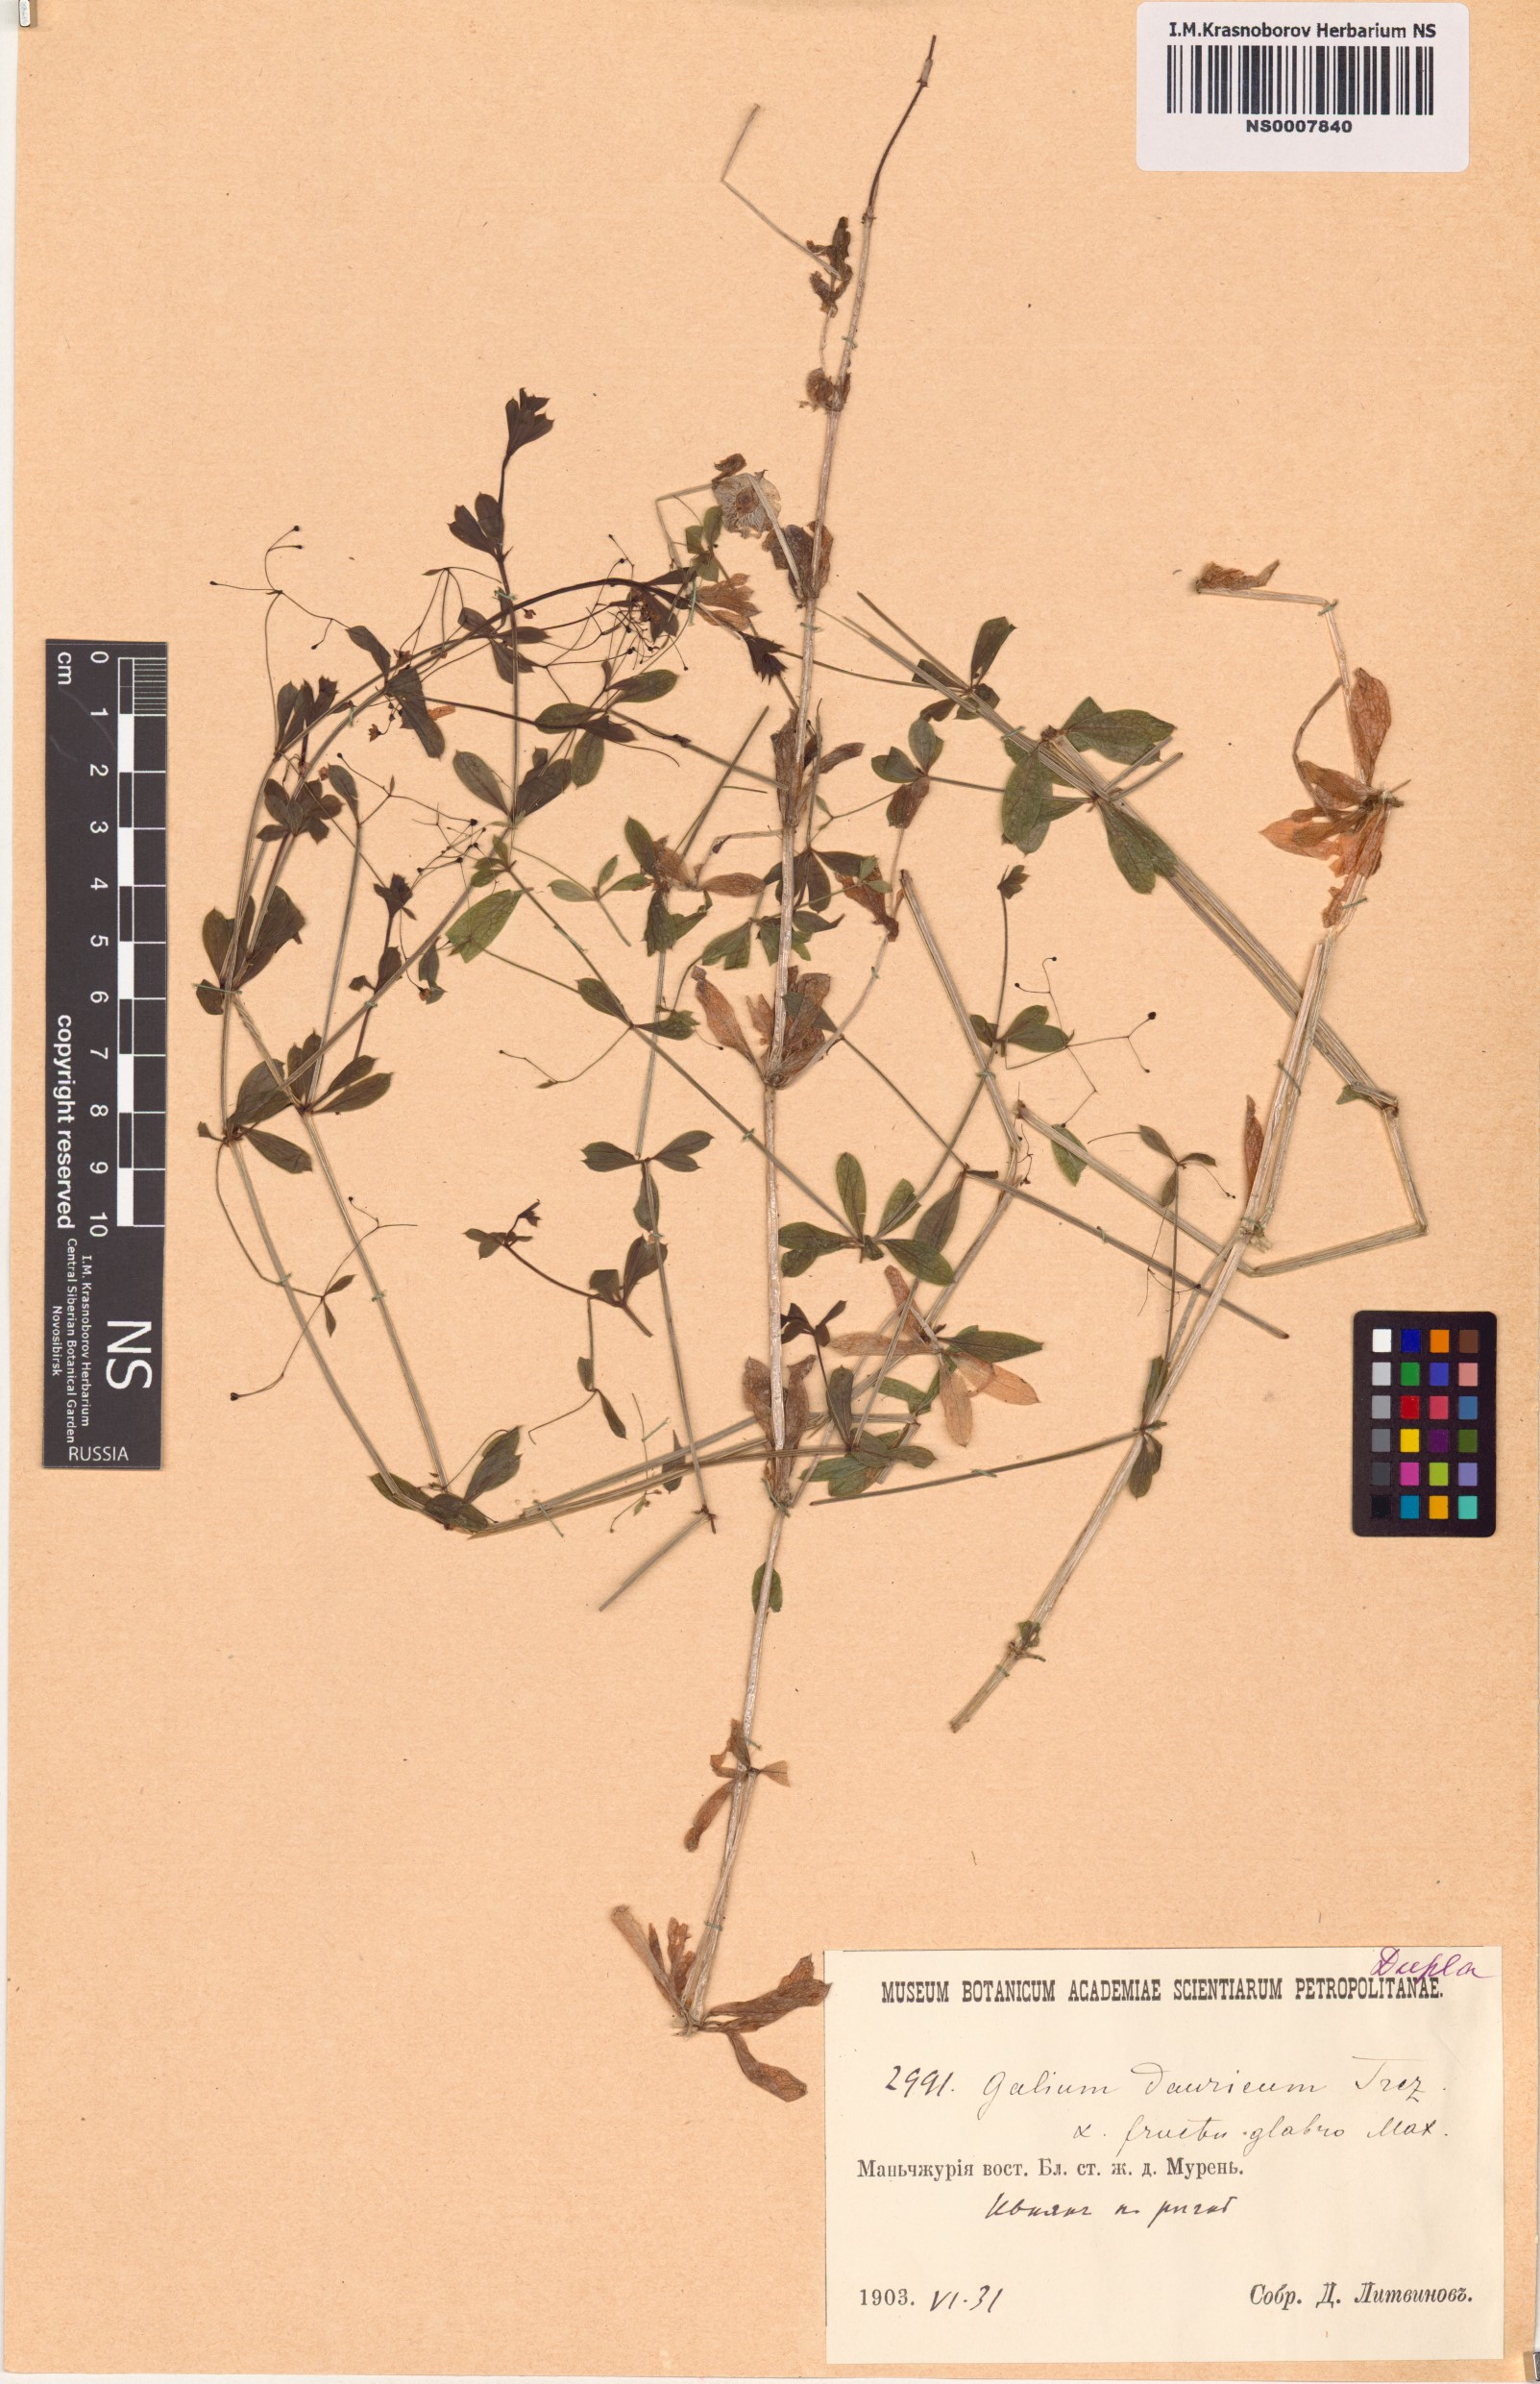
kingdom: Plantae
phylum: Tracheophyta
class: Magnoliopsida
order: Gentianales
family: Rubiaceae
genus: Galium
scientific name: Galium dahuricum
